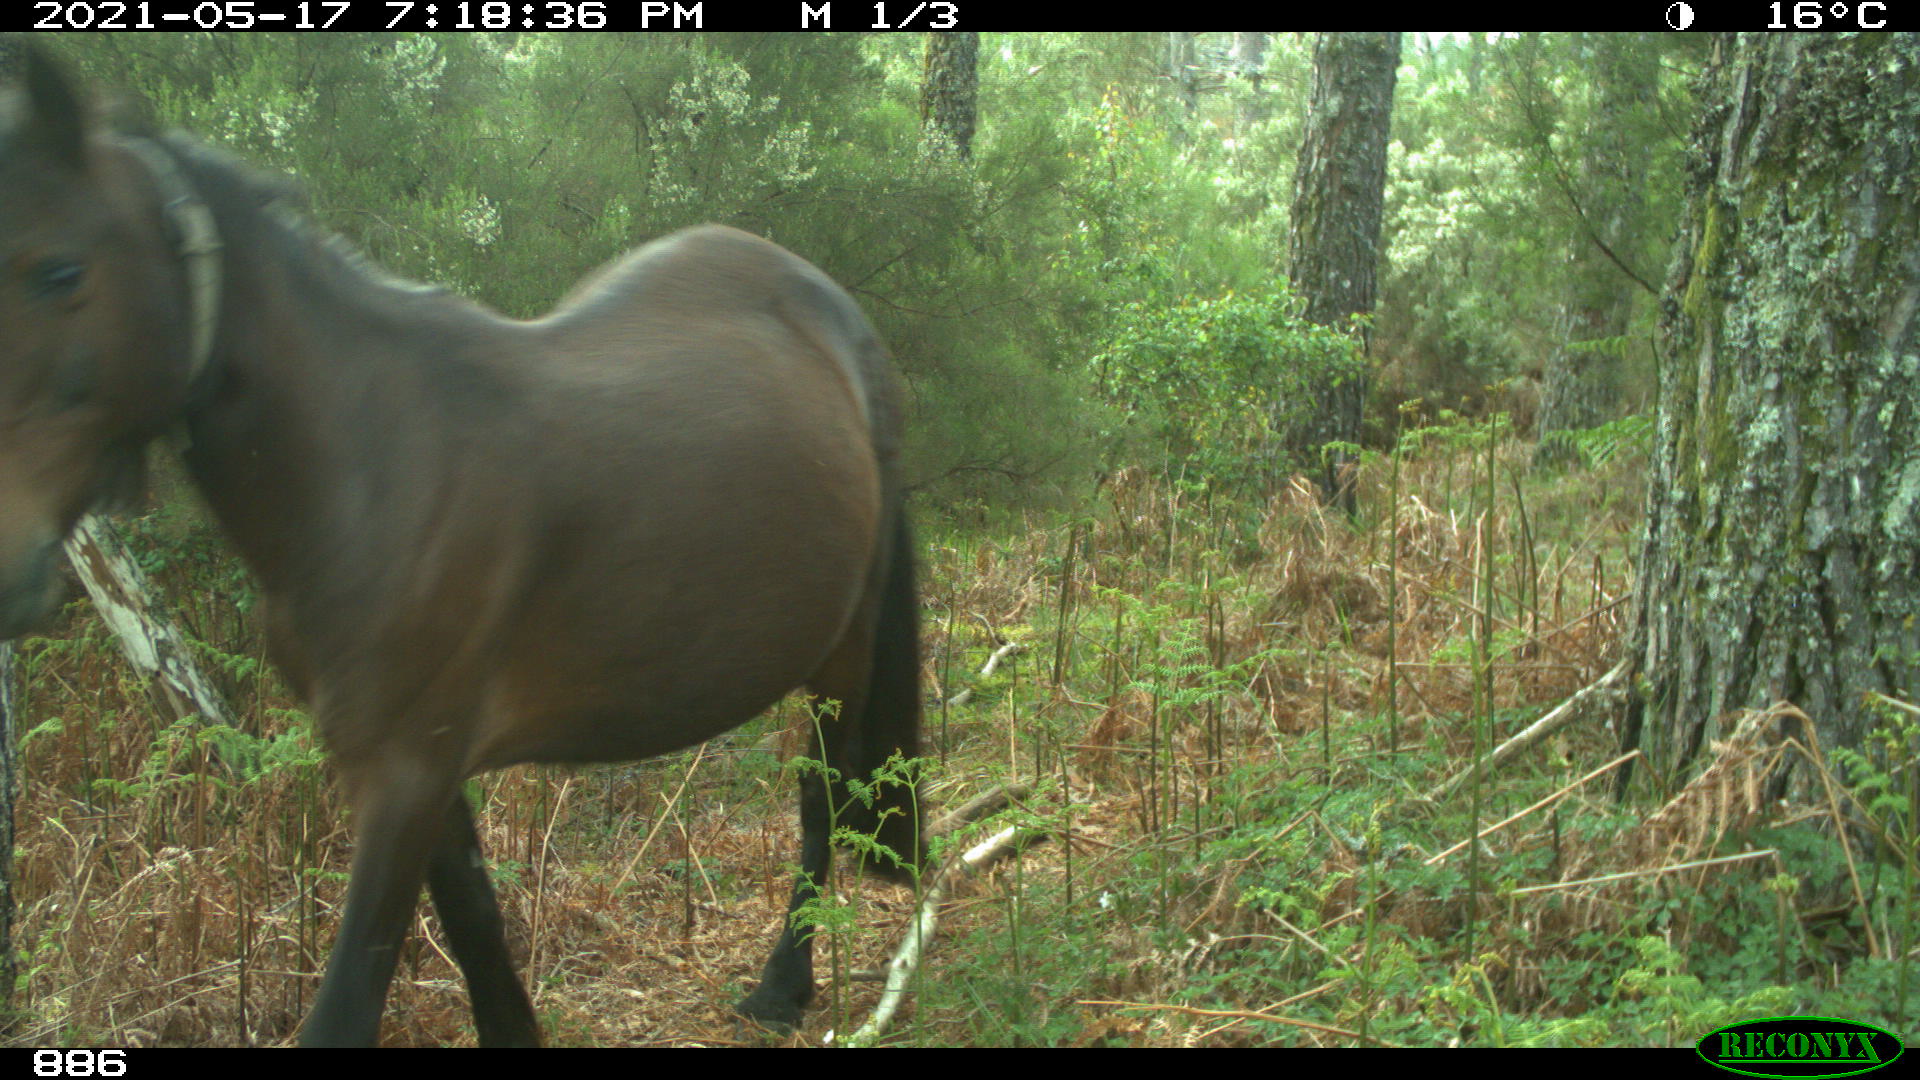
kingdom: Animalia
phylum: Chordata
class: Mammalia
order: Perissodactyla
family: Equidae
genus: Equus
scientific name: Equus caballus
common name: Horse
